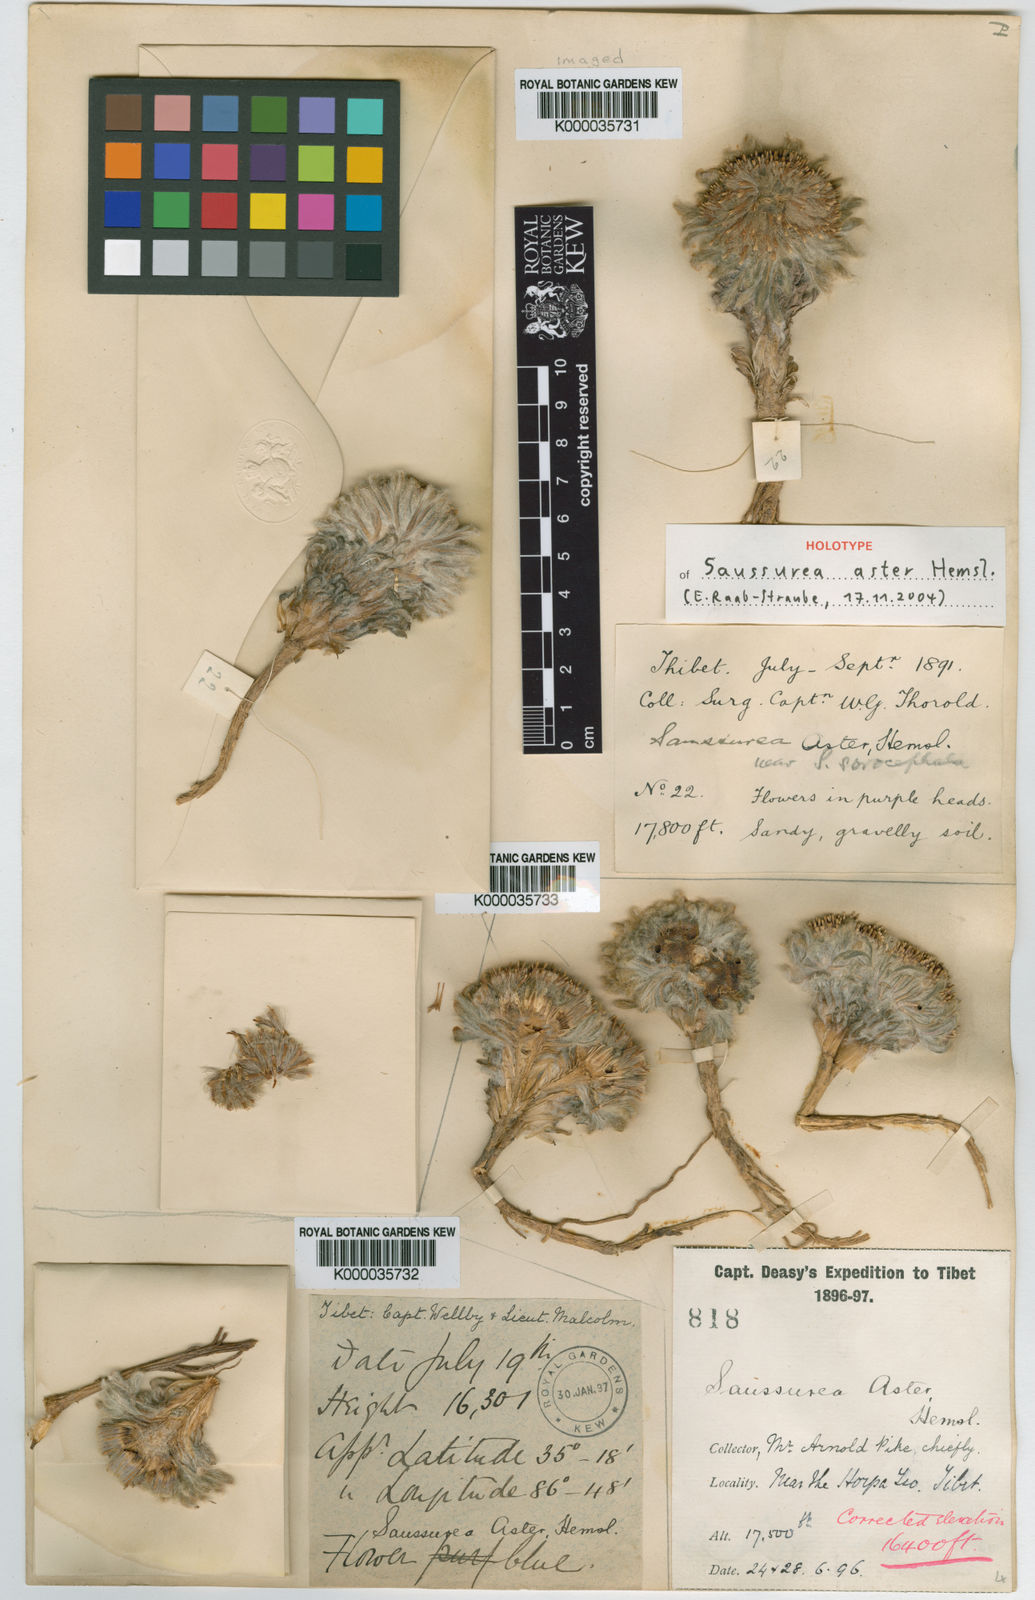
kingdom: Plantae
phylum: Tracheophyta
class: Magnoliopsida
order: Asterales
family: Asteraceae
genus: Saussurea
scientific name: Saussurea aster
